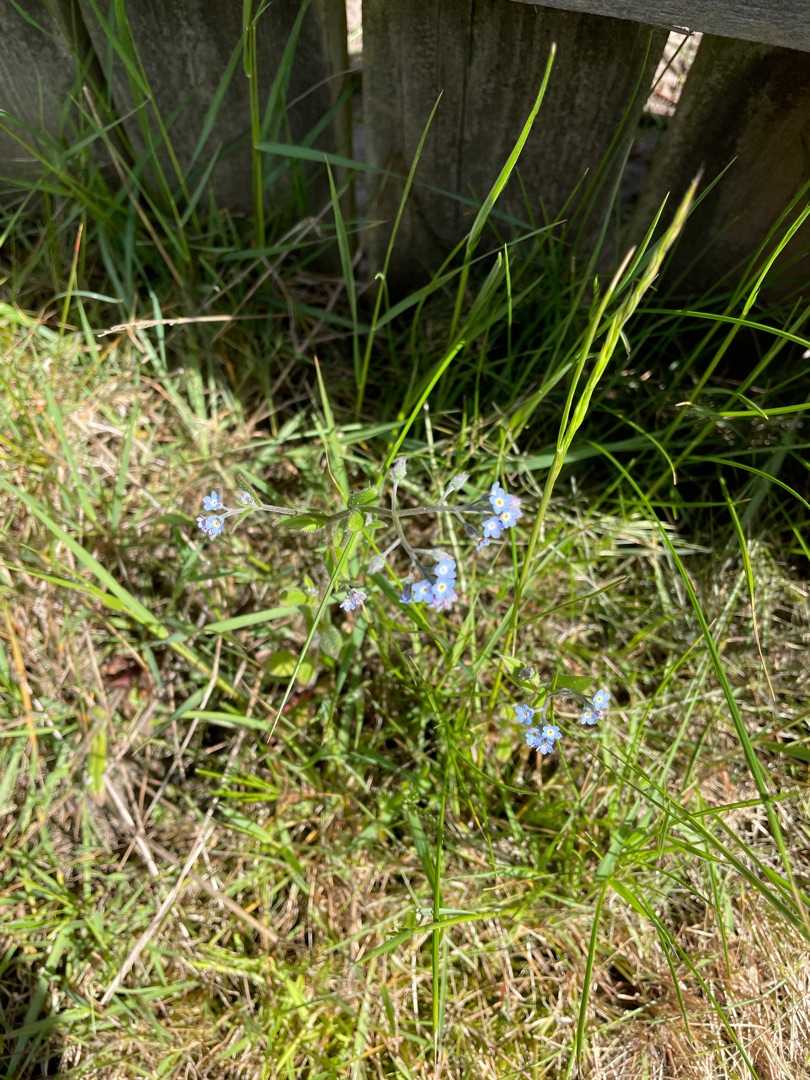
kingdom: Plantae
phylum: Tracheophyta
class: Magnoliopsida
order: Boraginales
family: Boraginaceae
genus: Myosotis
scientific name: Myosotis arvensis
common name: Mark-forglemmigej
